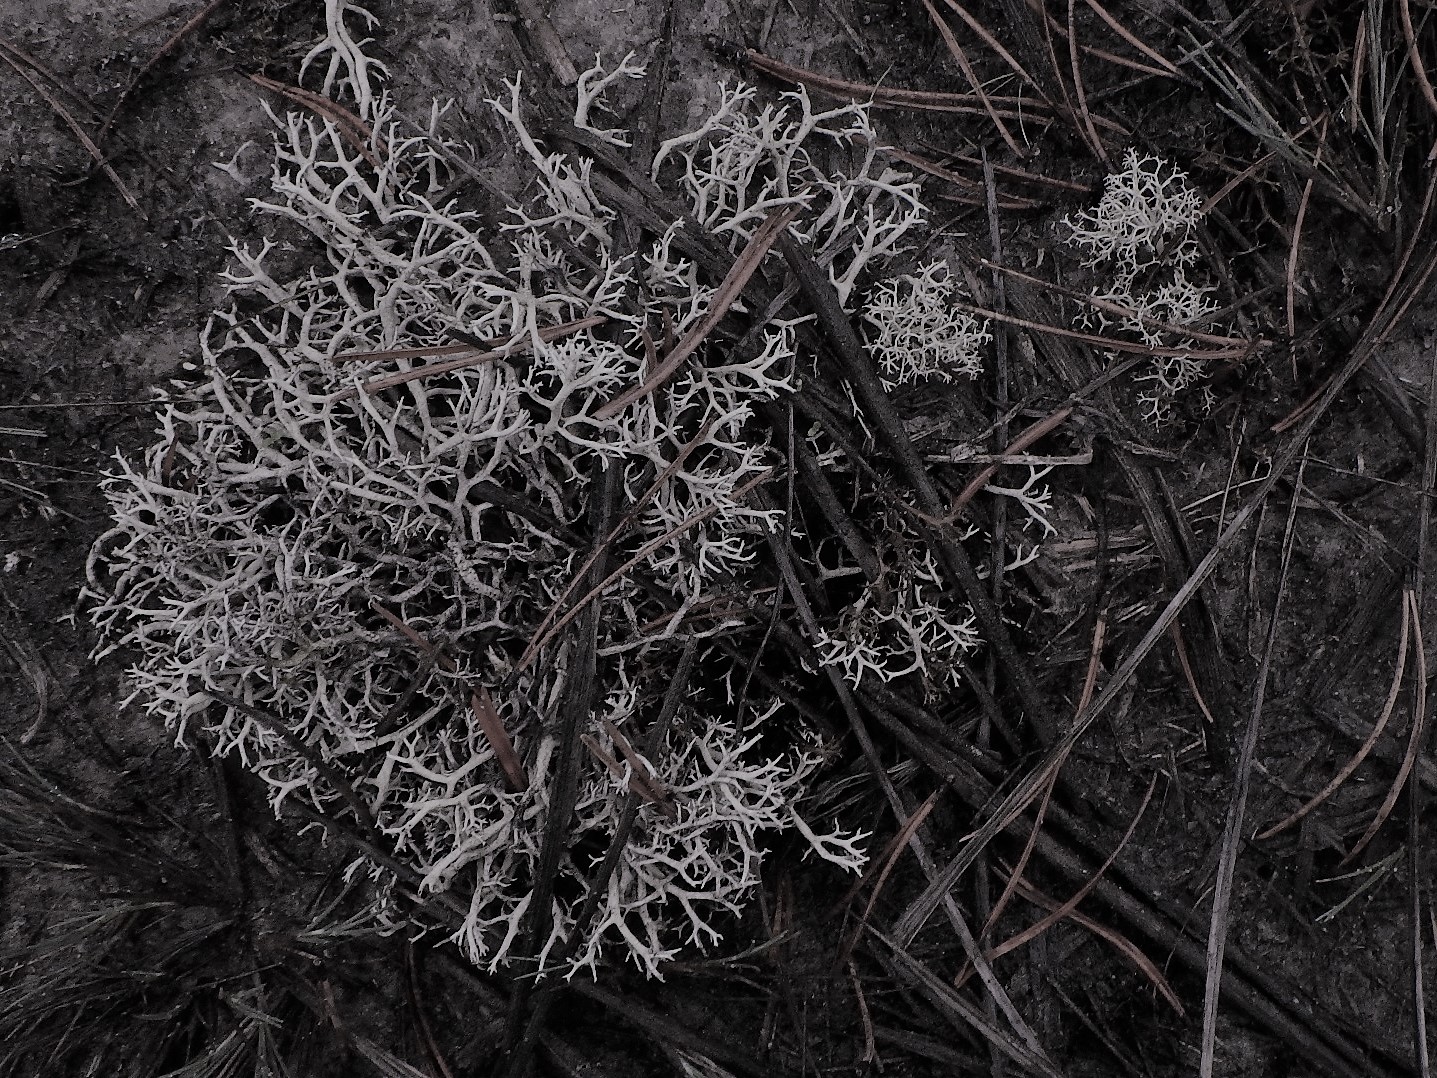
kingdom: Fungi
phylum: Ascomycota
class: Lecanoromycetes
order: Lecanorales
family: Cladoniaceae
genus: Cladonia
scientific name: Cladonia zopfii
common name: klit-bægerlav
